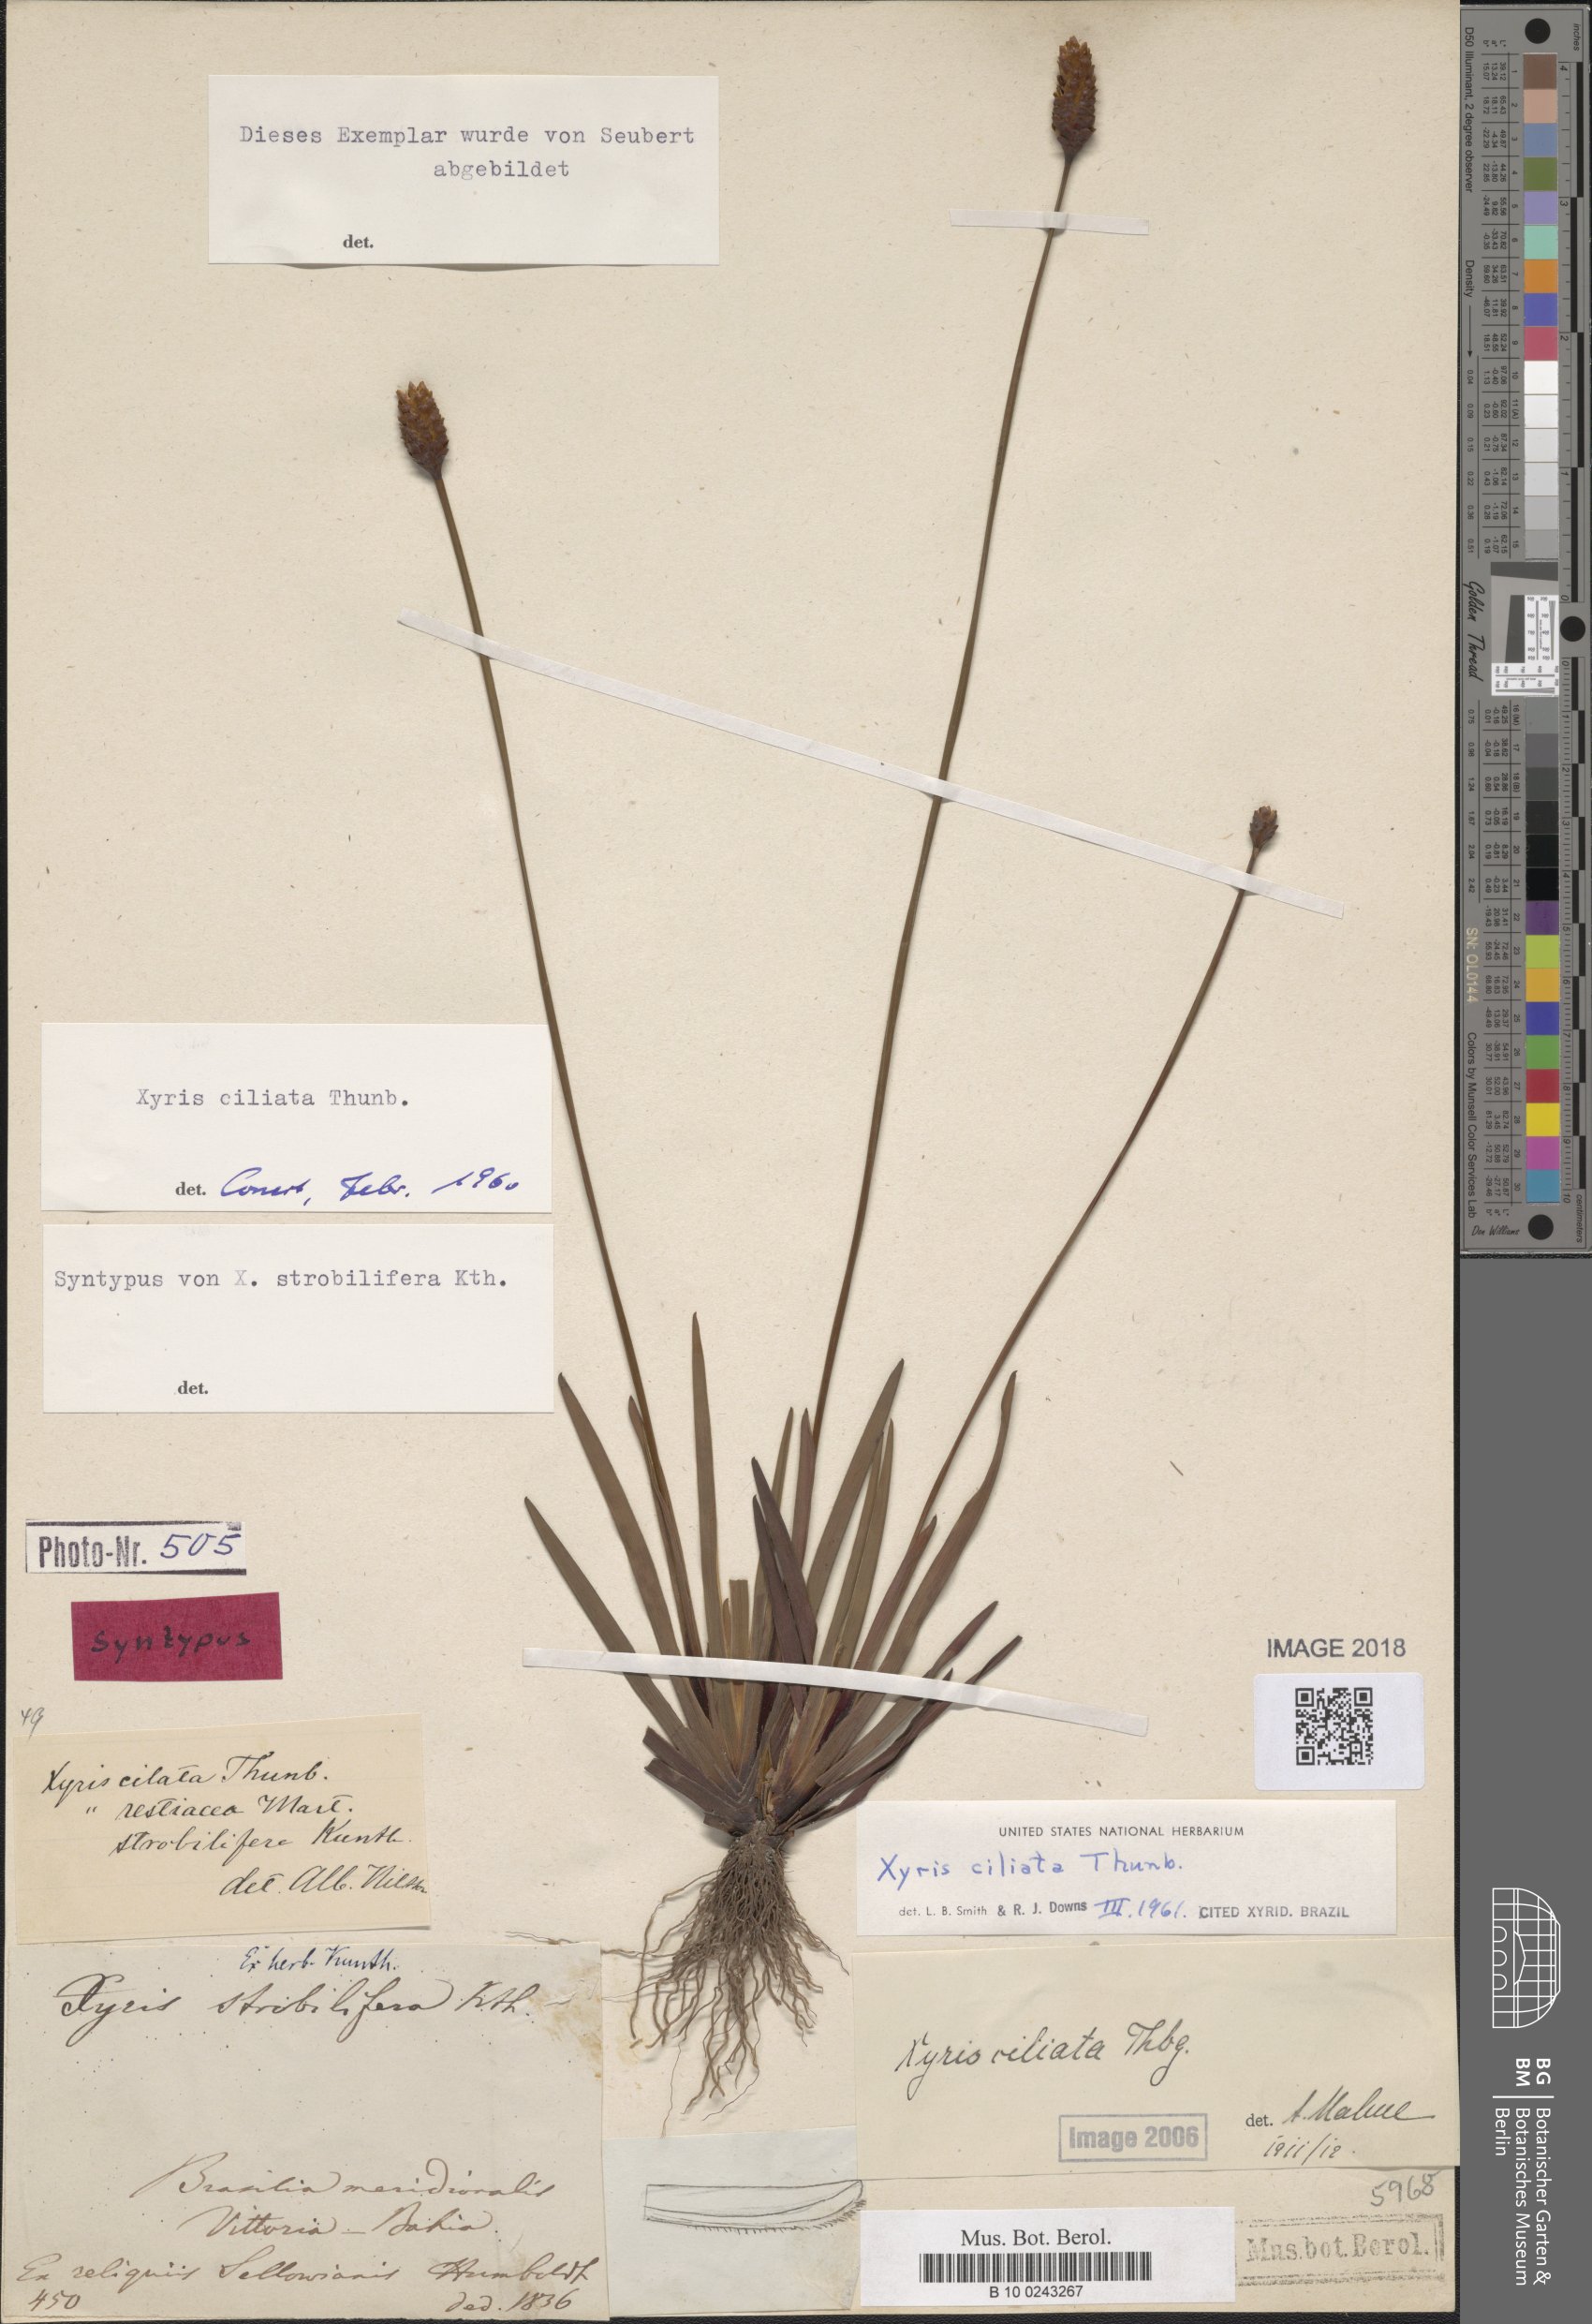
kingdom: Plantae
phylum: Tracheophyta
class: Liliopsida
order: Poales
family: Xyridaceae
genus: Xyris
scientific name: Xyris ciliata
